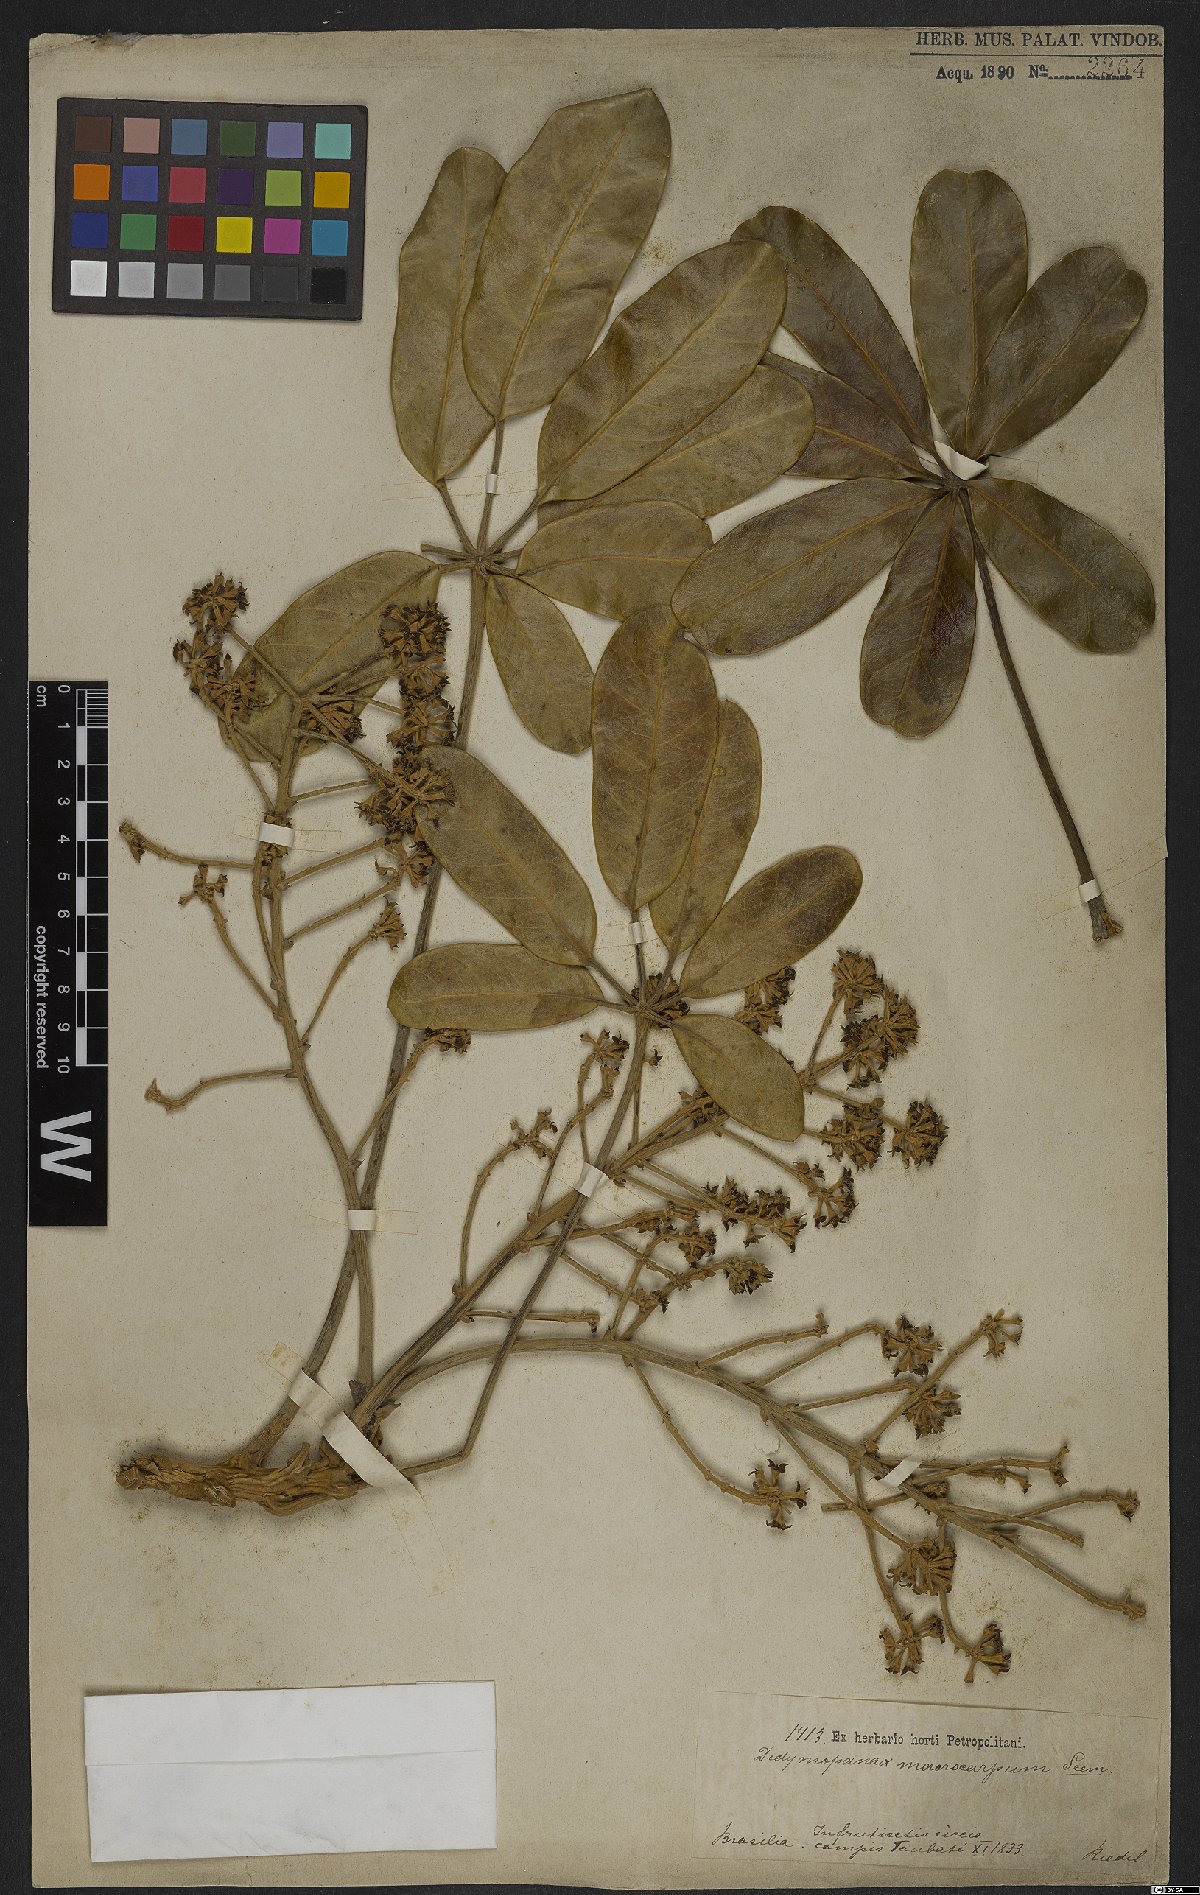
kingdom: Plantae
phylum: Tracheophyta
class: Magnoliopsida
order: Apiales
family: Araliaceae
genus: Didymopanax
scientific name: Didymopanax macrocarpus
